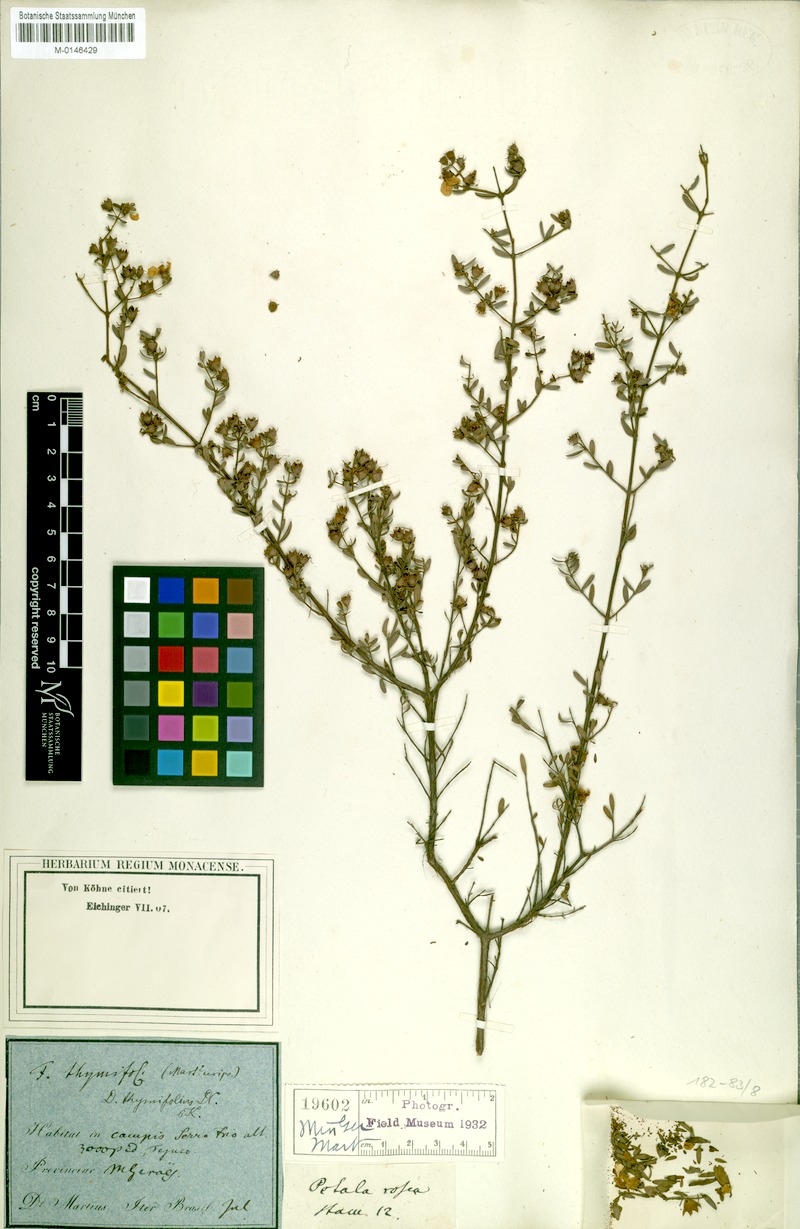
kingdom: Plantae
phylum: Tracheophyta
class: Magnoliopsida
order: Myrtales
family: Lythraceae
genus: Diplusodon
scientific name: Diplusodon thymifolius
